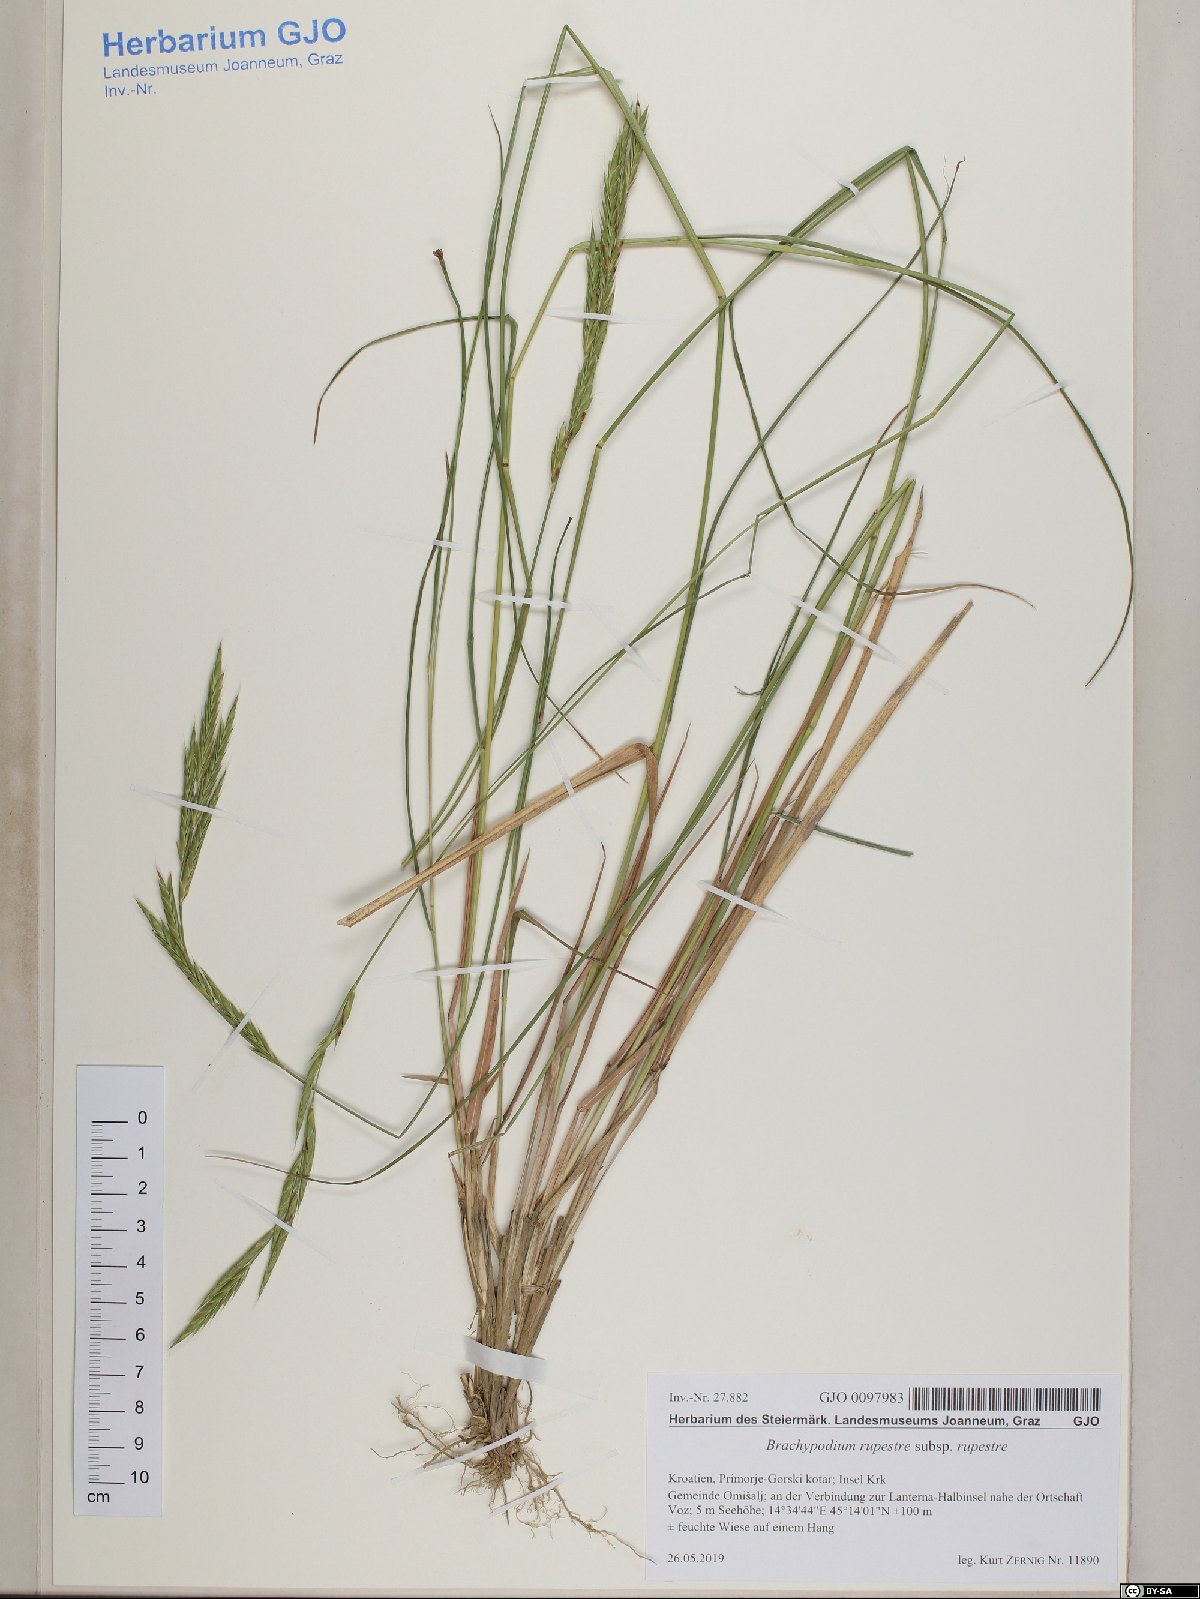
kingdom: Plantae
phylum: Tracheophyta
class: Liliopsida
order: Poales
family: Poaceae
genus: Brachypodium
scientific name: Brachypodium pinnatum
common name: Tor grass
